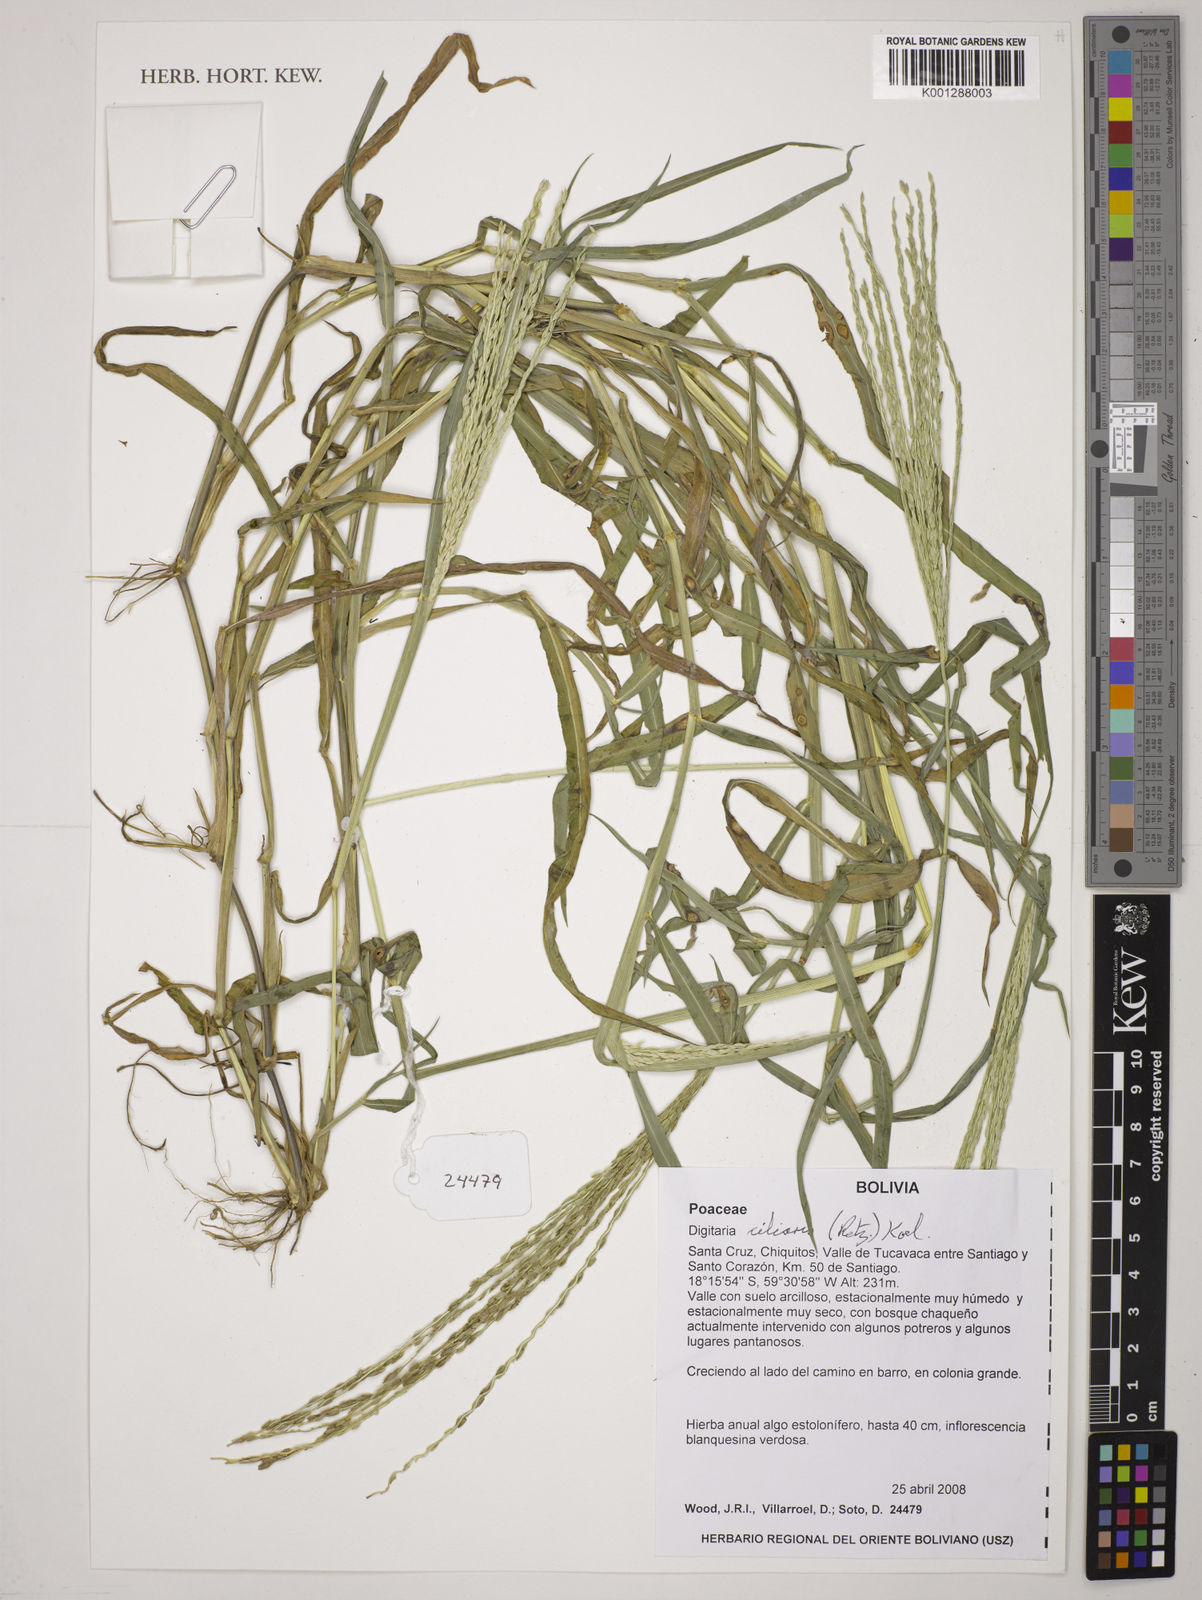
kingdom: Plantae
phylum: Tracheophyta
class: Liliopsida
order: Poales
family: Poaceae
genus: Digitaria
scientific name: Digitaria
